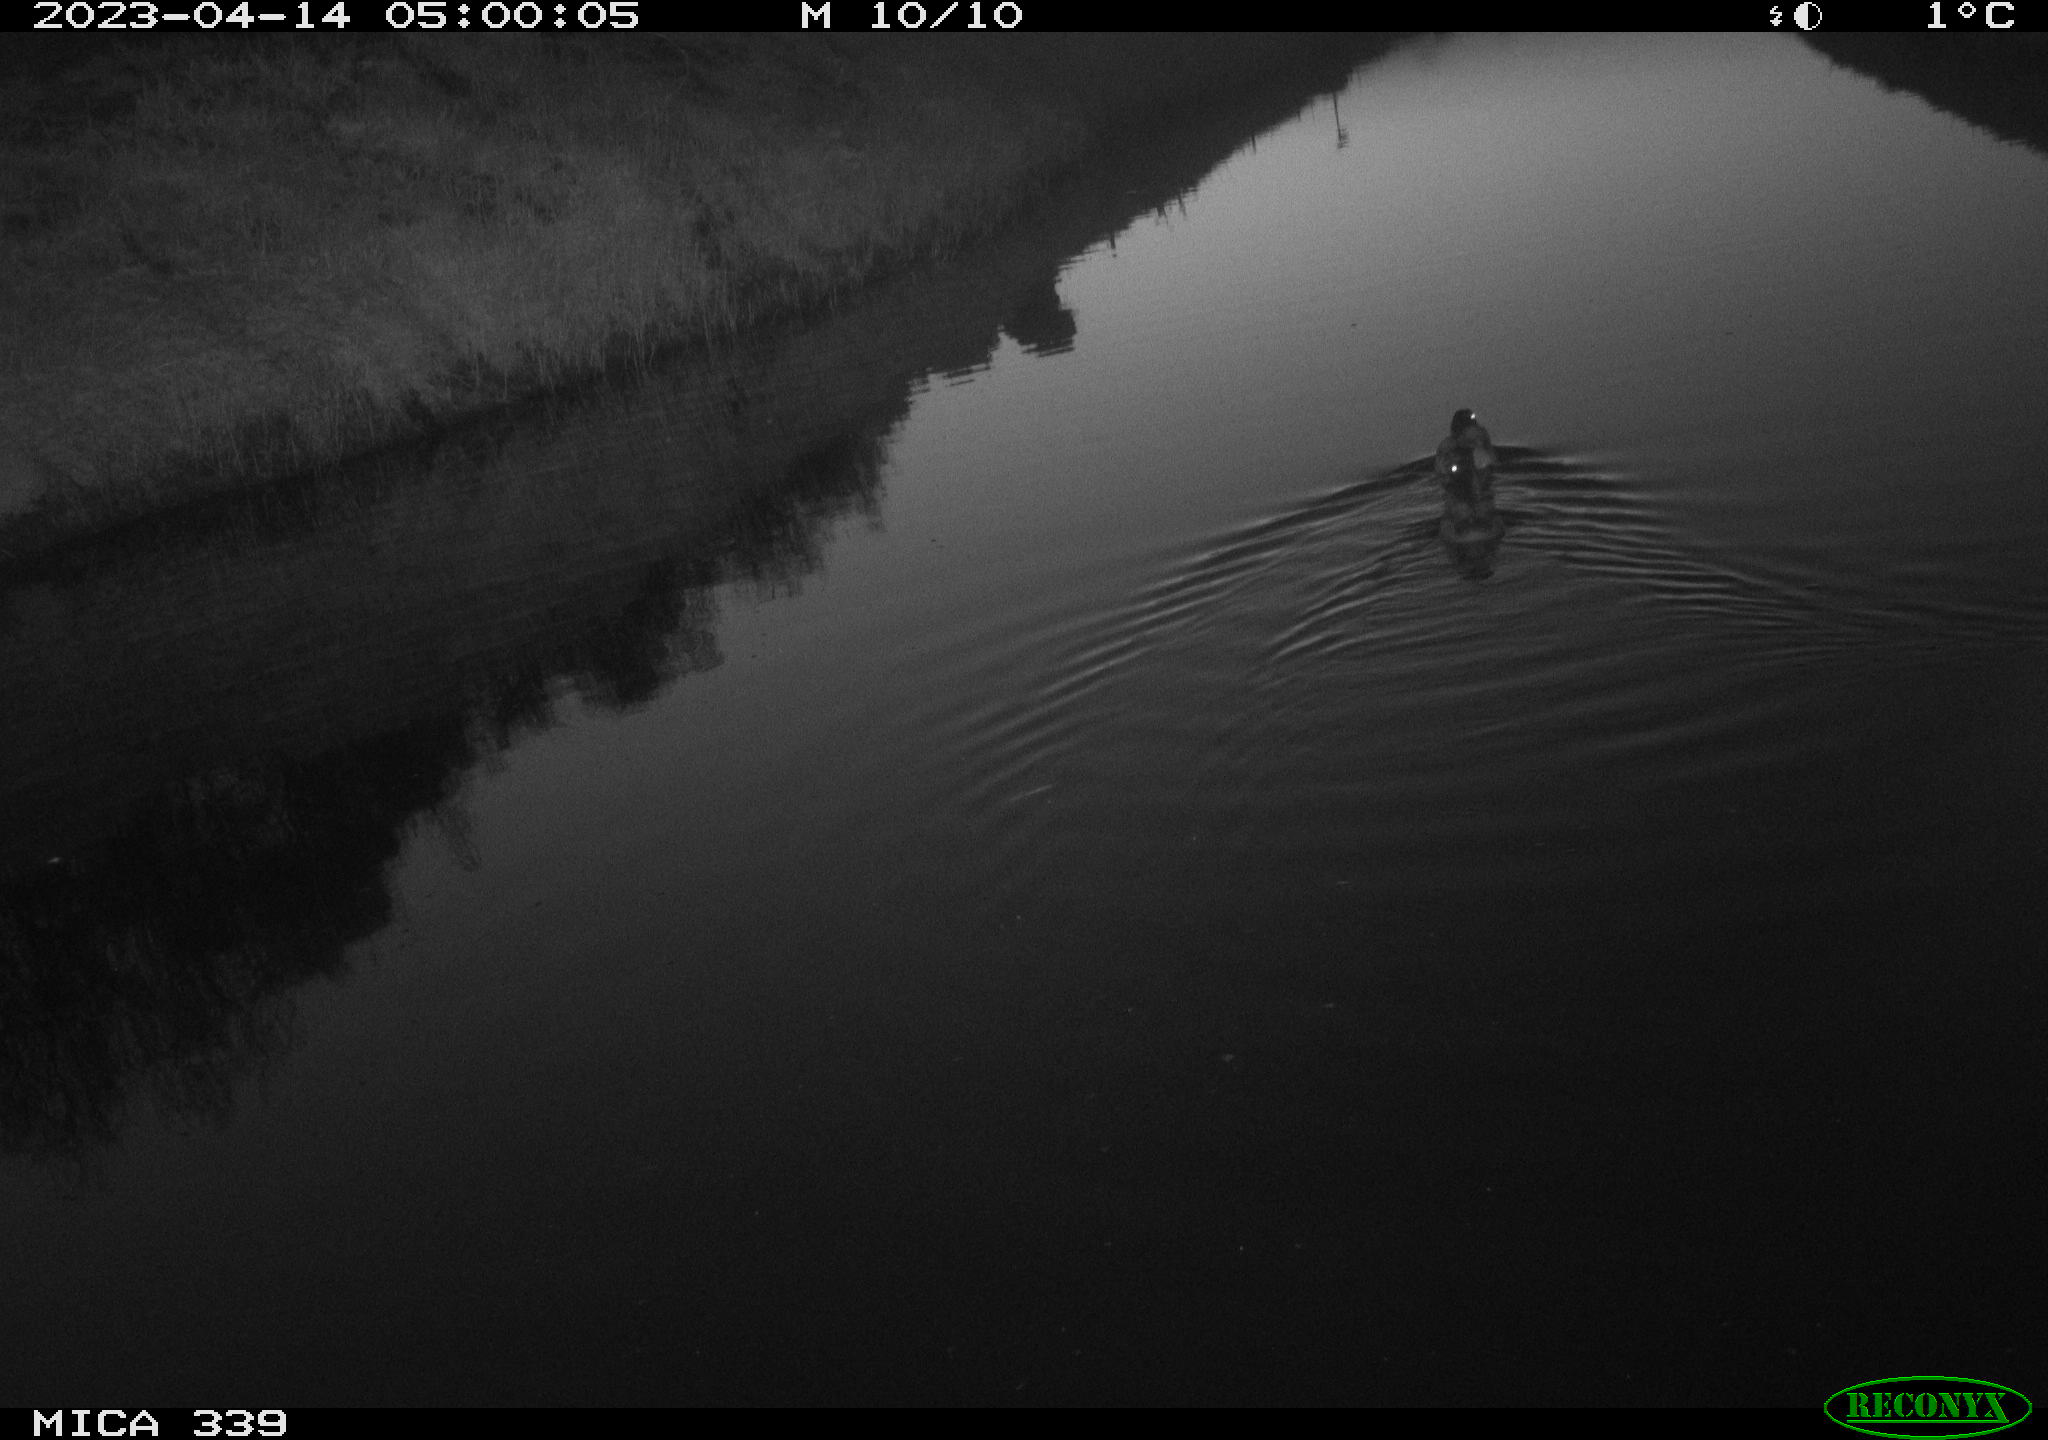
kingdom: Animalia
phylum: Chordata
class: Aves
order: Anseriformes
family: Anatidae
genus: Anas
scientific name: Anas
